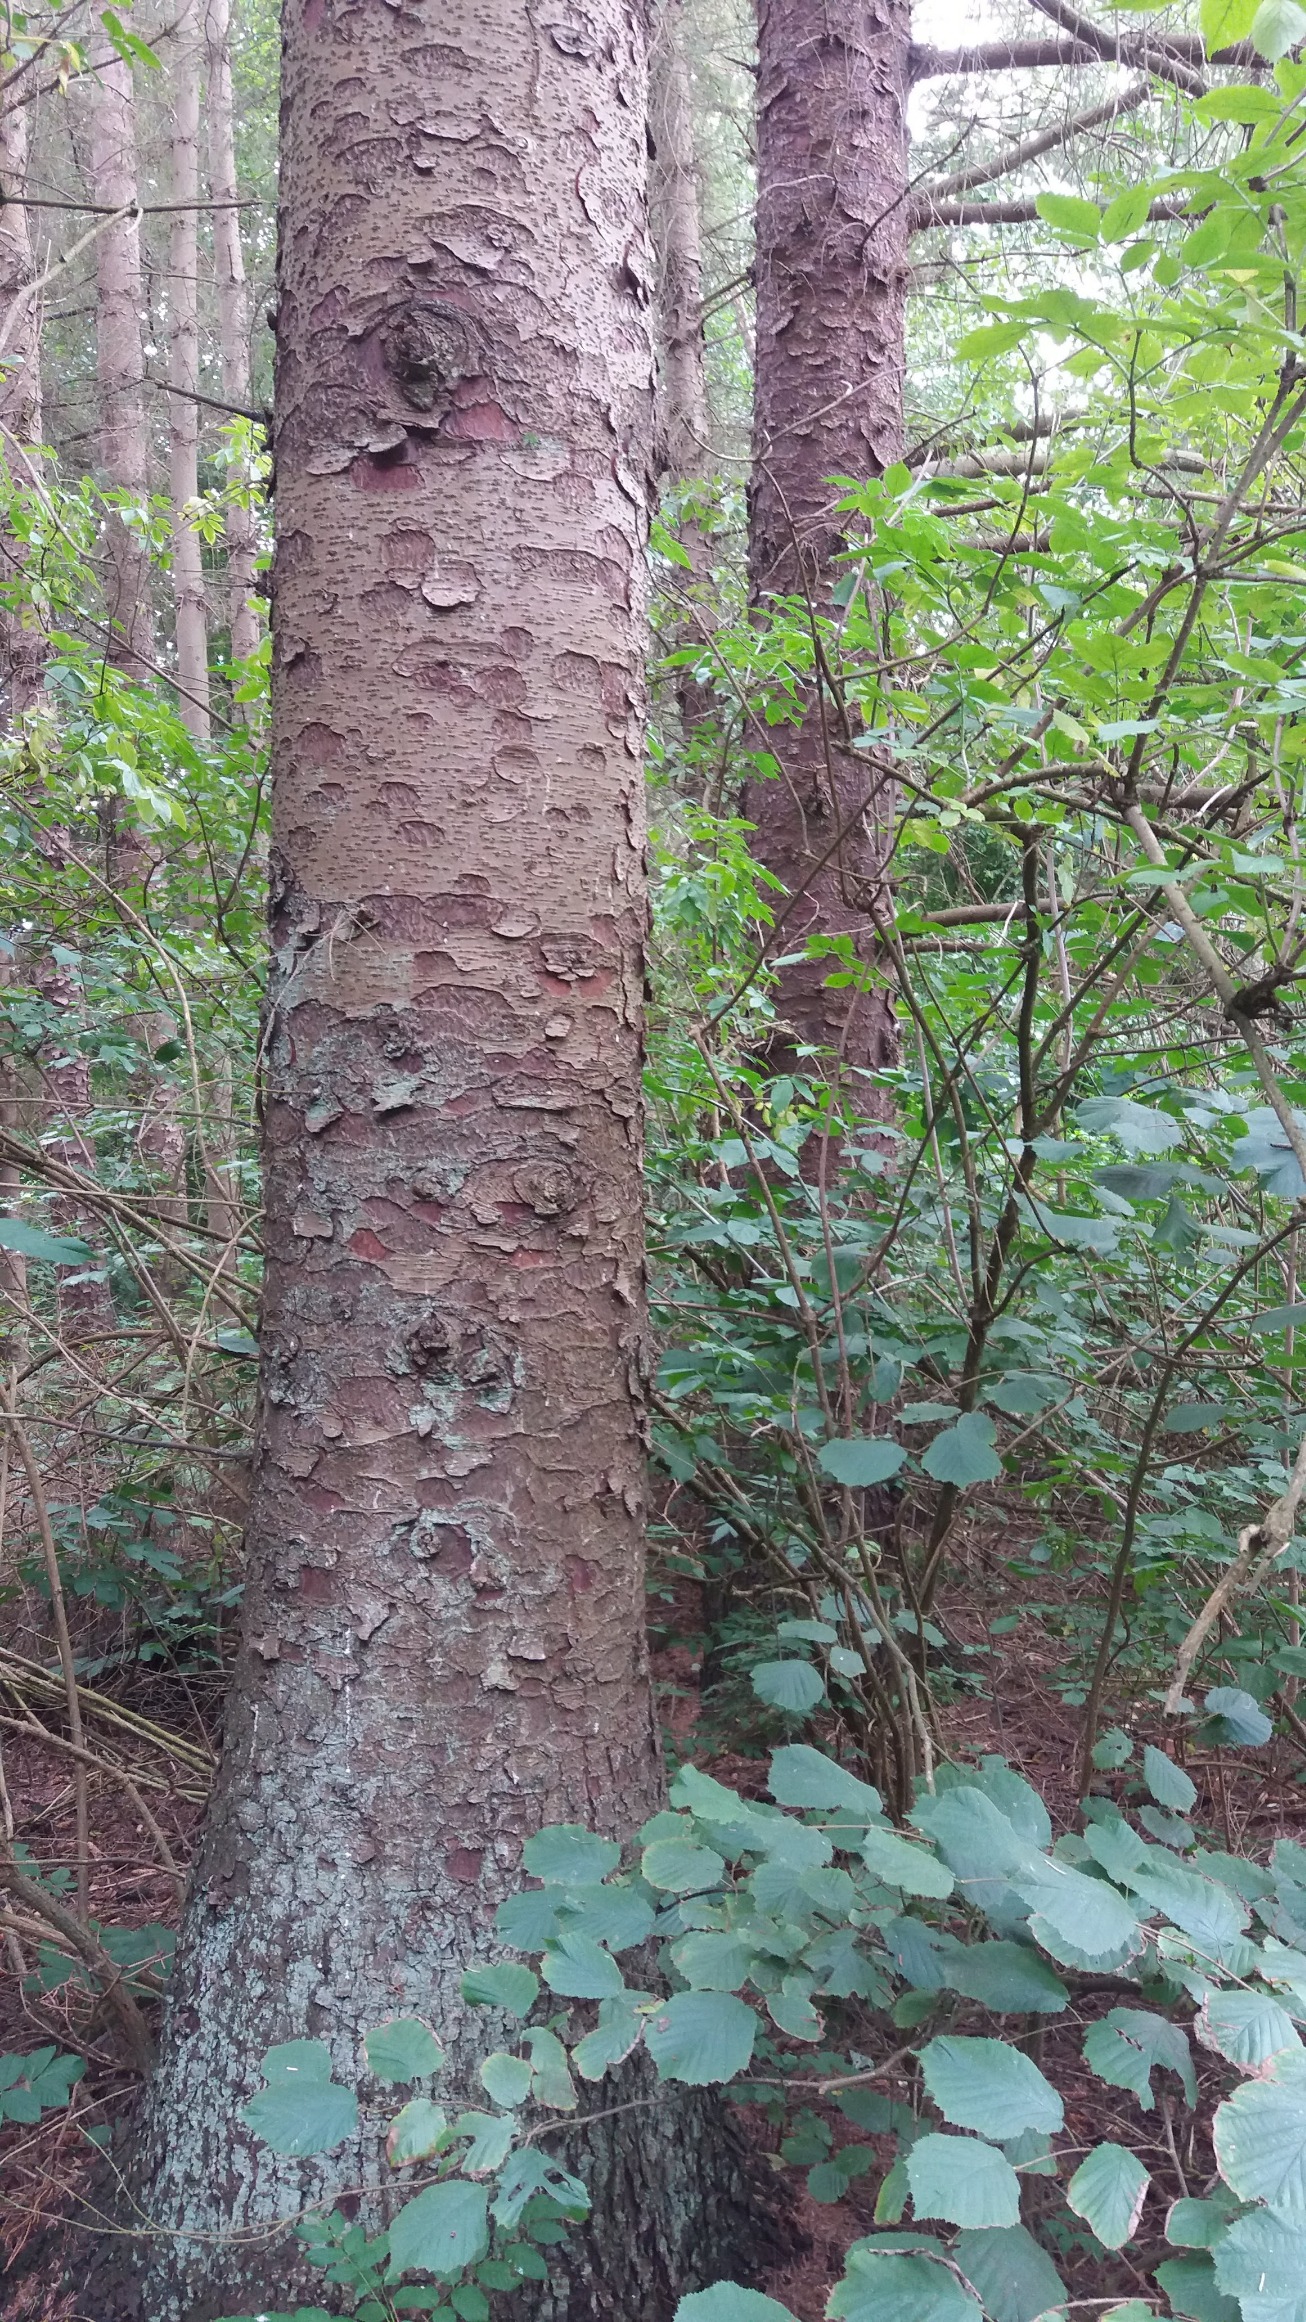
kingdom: Plantae
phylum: Tracheophyta
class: Pinopsida
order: Pinales
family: Pinaceae
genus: Picea
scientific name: Picea sitchensis
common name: Sitka-gran
